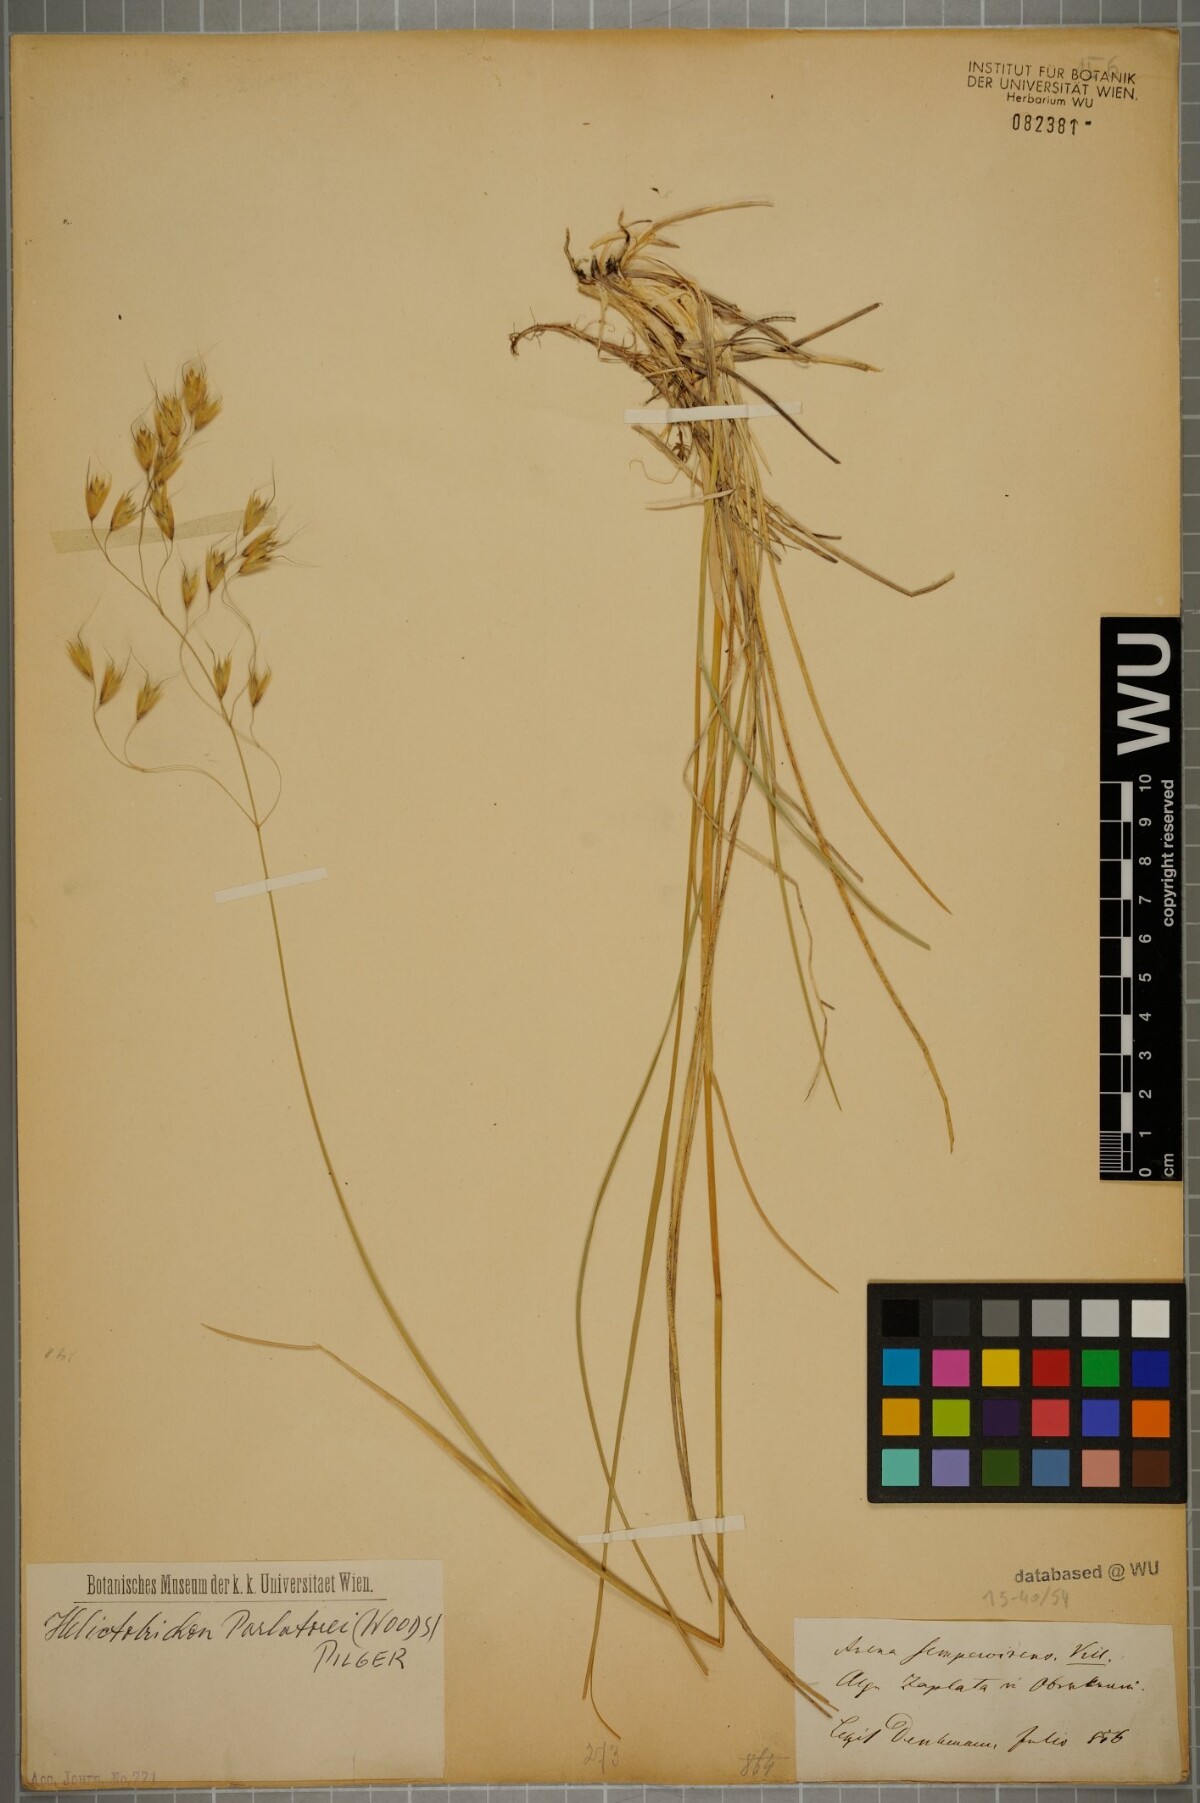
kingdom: Plantae
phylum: Tracheophyta
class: Liliopsida
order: Poales
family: Poaceae
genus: Helictotrichon
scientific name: Helictotrichon parlatorei
